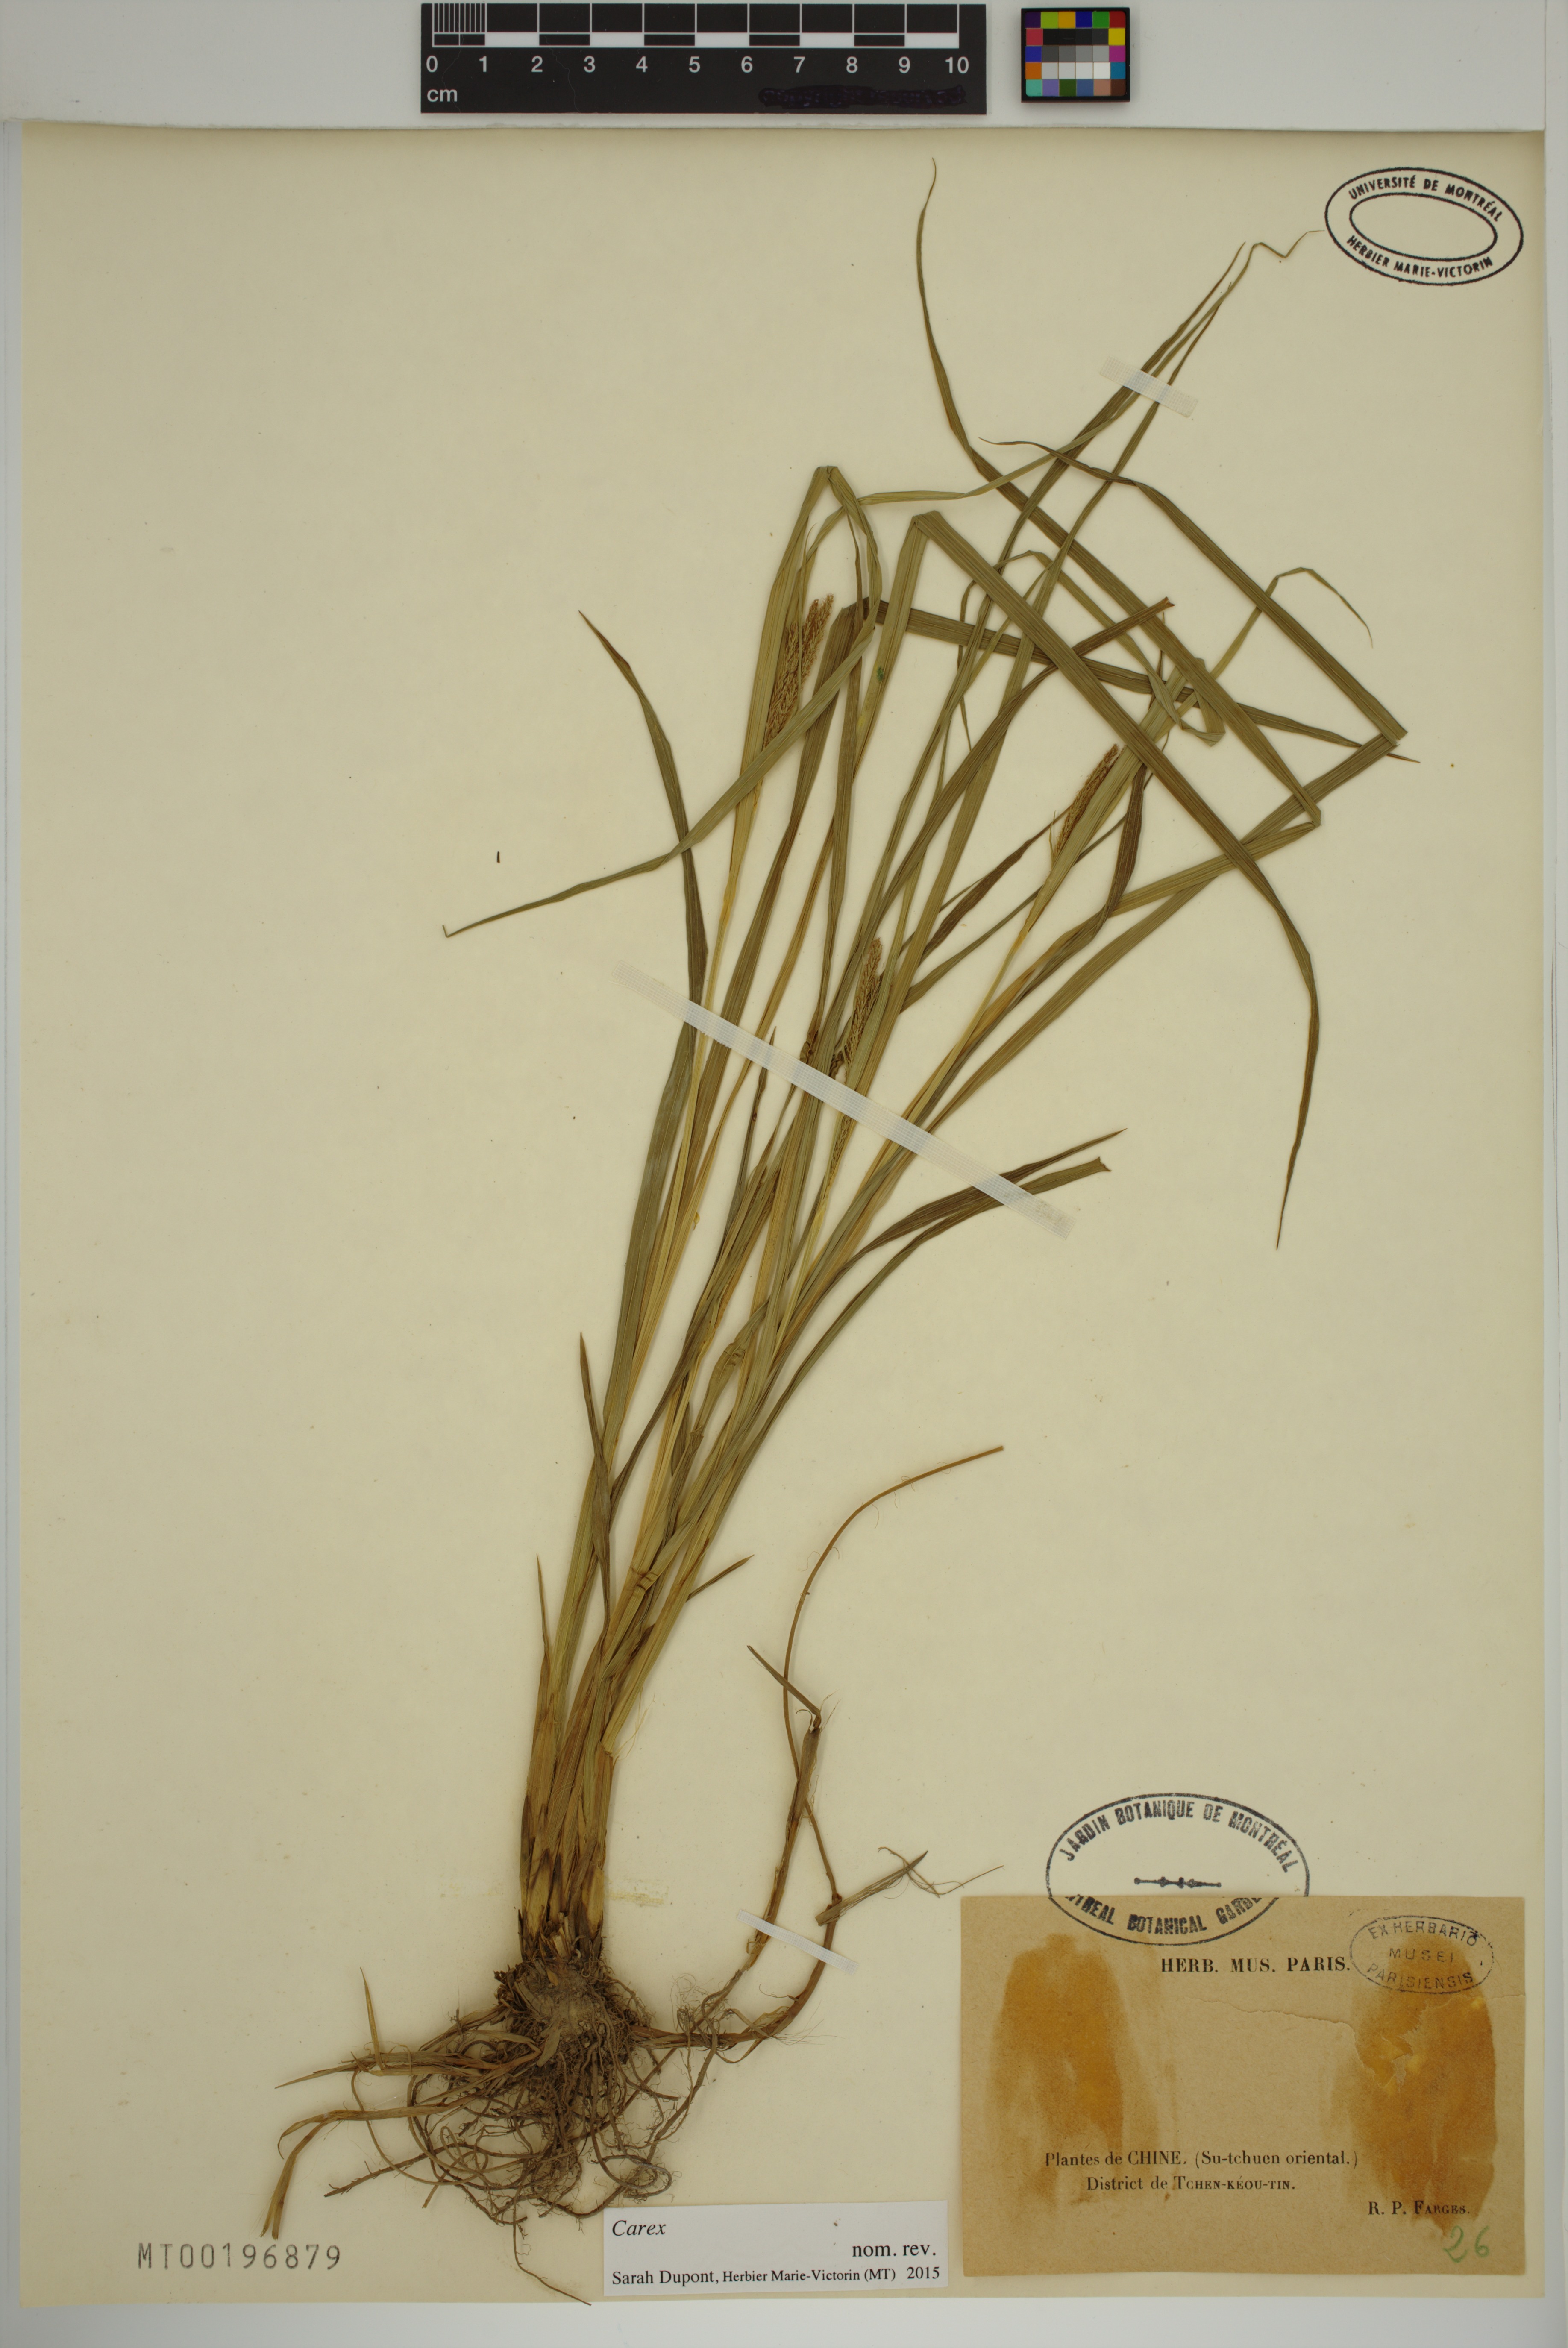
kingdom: Plantae
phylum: Tracheophyta
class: Liliopsida
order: Poales
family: Cyperaceae
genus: Carex
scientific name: Carex
